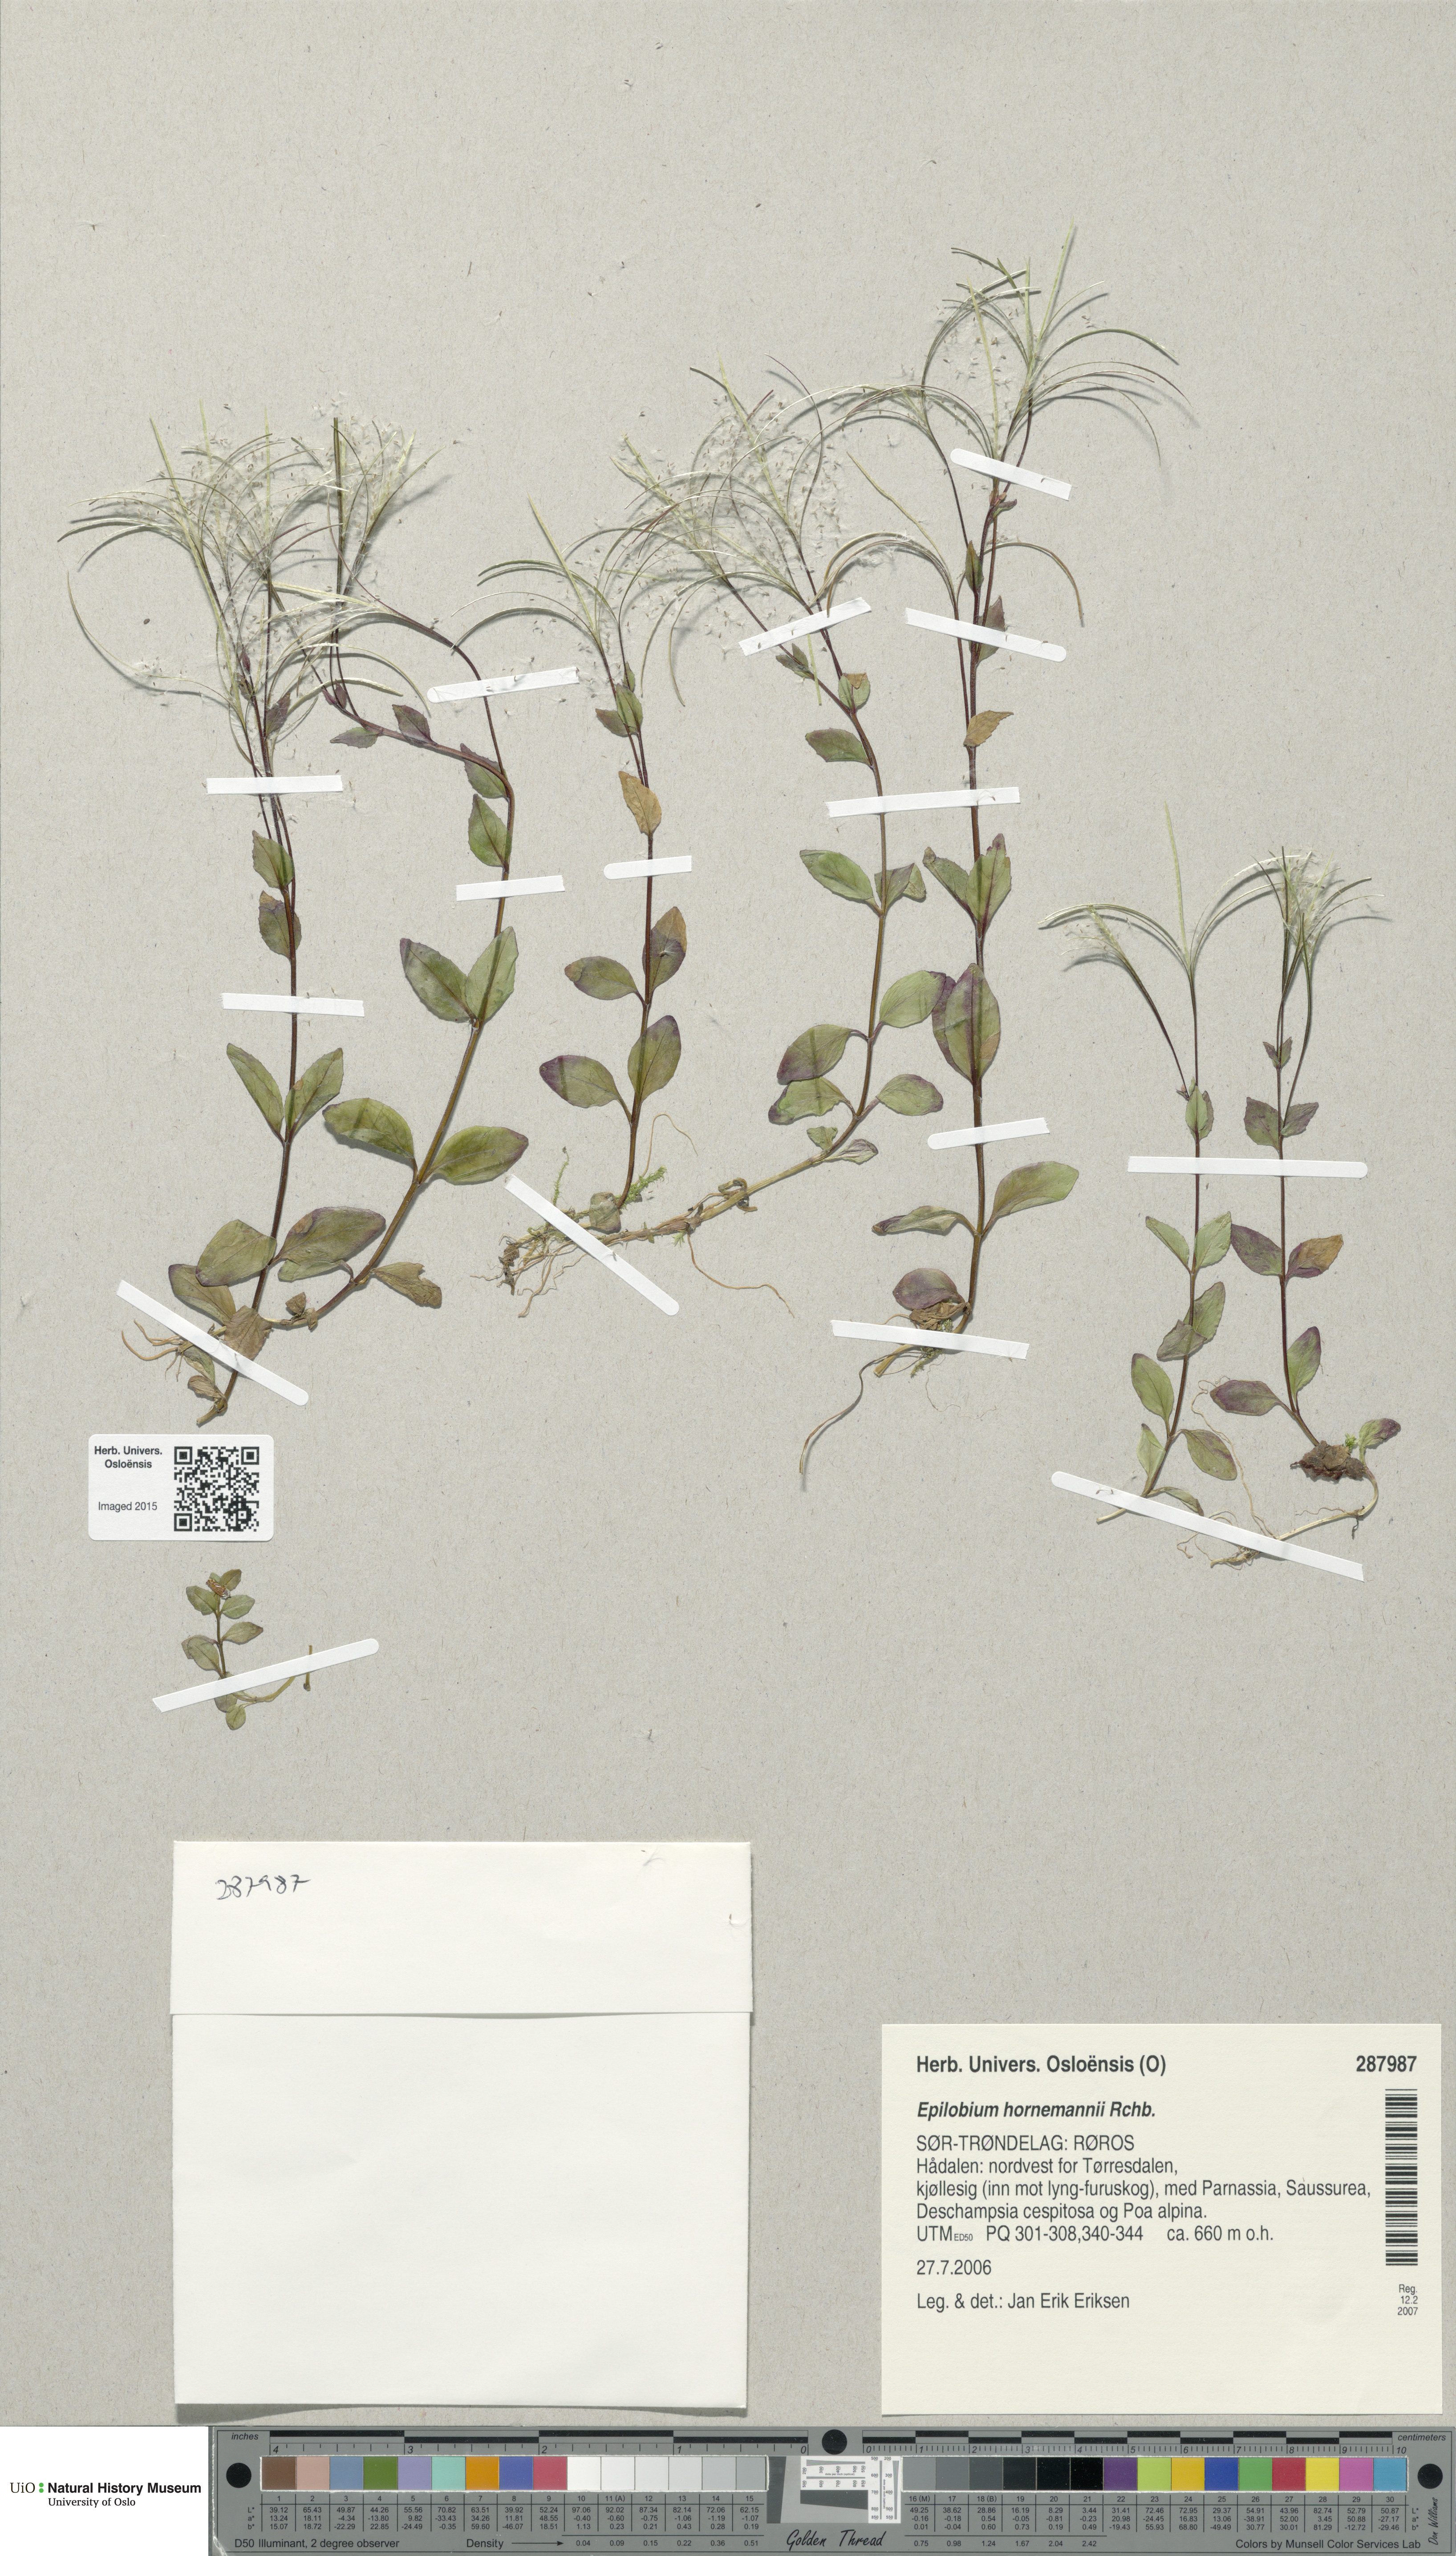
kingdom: Plantae
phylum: Tracheophyta
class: Magnoliopsida
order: Myrtales
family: Onagraceae
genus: Epilobium
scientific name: Epilobium hornemannii
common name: Hornemann's willowherb
